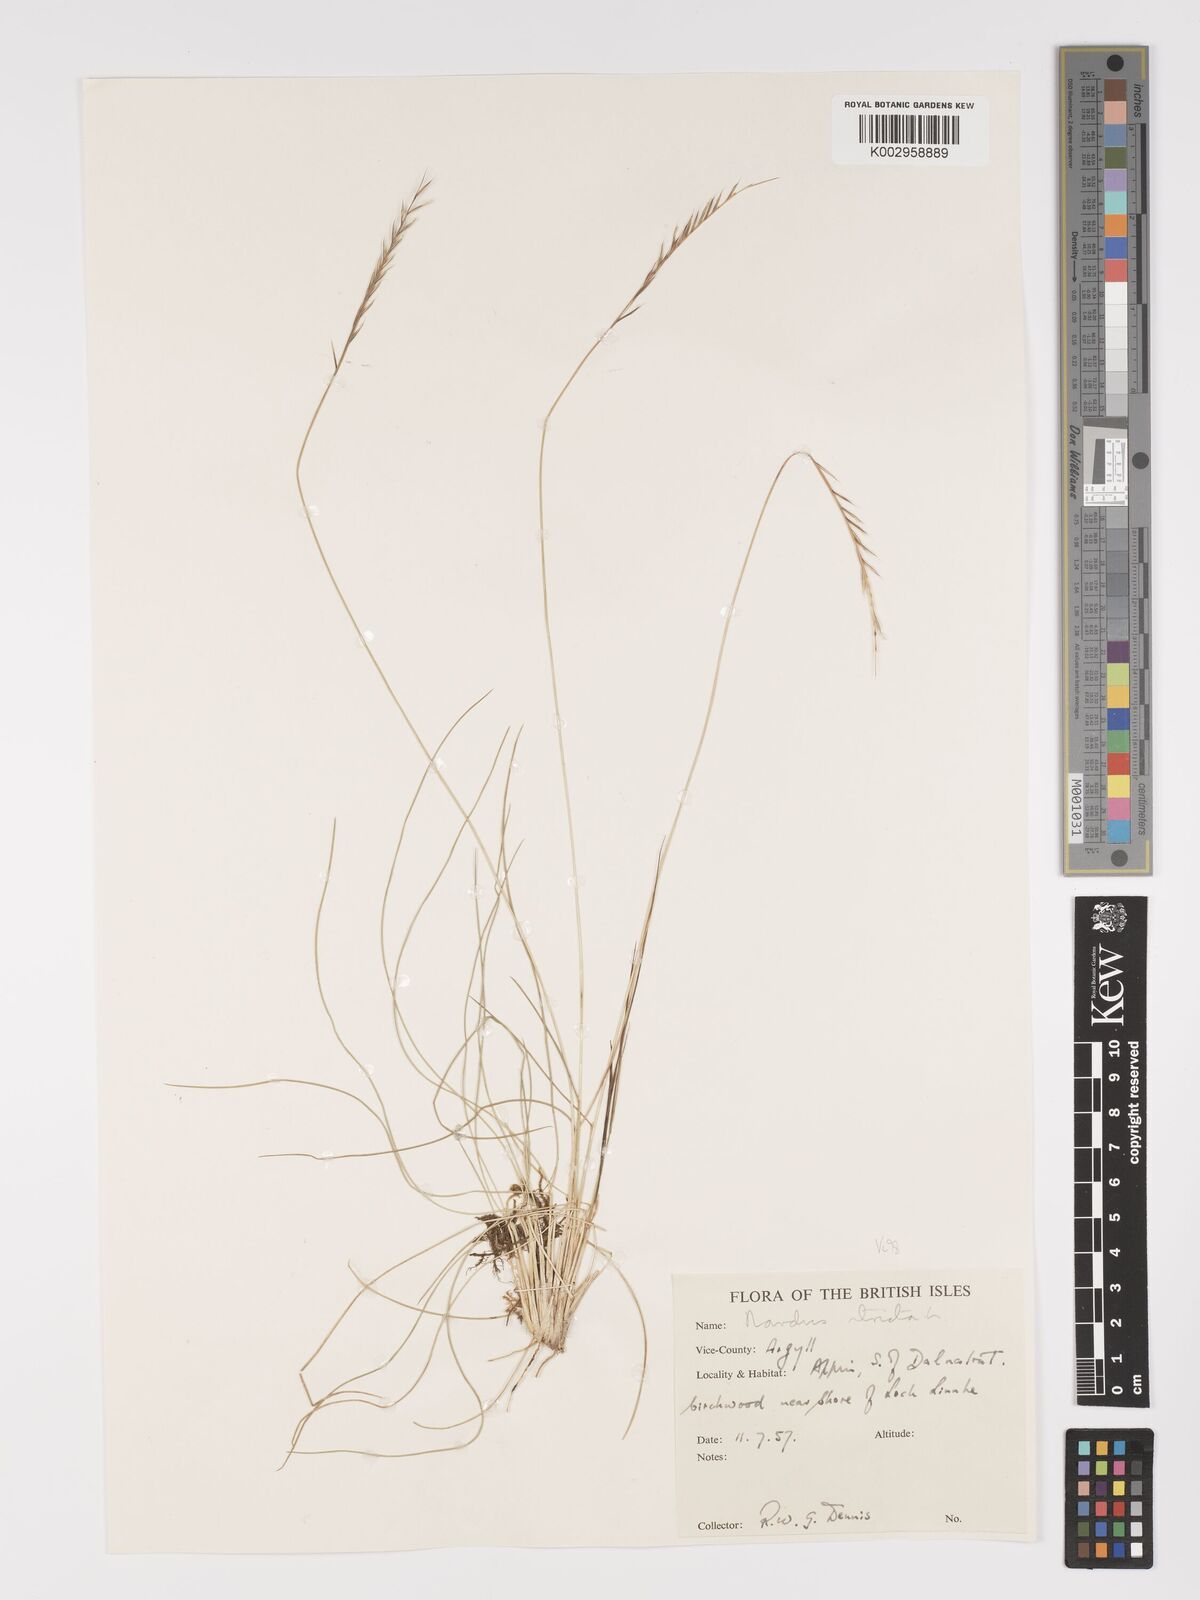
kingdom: Plantae
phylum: Tracheophyta
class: Liliopsida
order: Poales
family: Poaceae
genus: Nardus
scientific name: Nardus stricta
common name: Mat-grass
